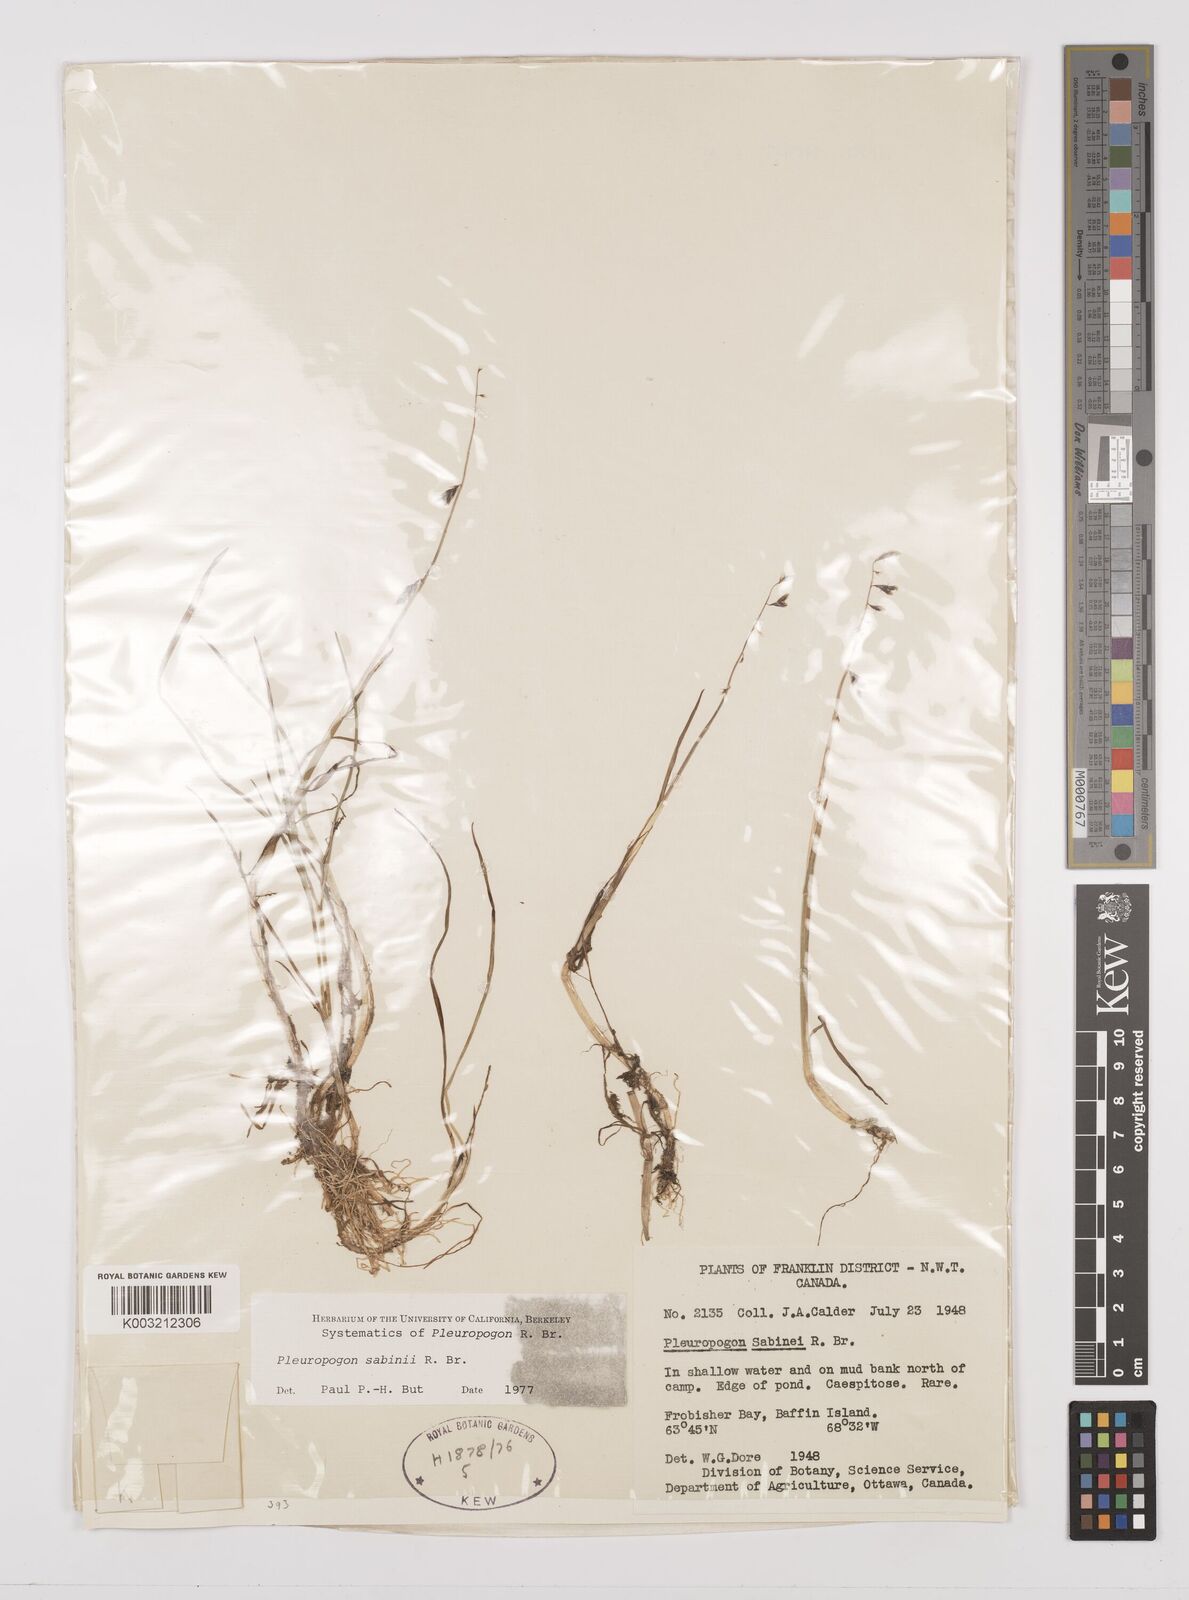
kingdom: Plantae
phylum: Tracheophyta
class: Liliopsida
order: Poales
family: Poaceae
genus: Pleuropogon
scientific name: Pleuropogon sabinei
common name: Sabine's false semaphoregrass
